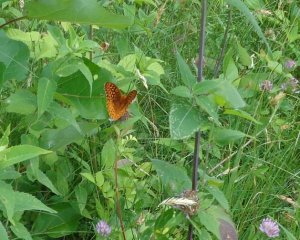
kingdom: Animalia
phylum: Arthropoda
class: Insecta
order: Lepidoptera
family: Nymphalidae
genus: Speyeria
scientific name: Speyeria cybele
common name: Great Spangled Fritillary
